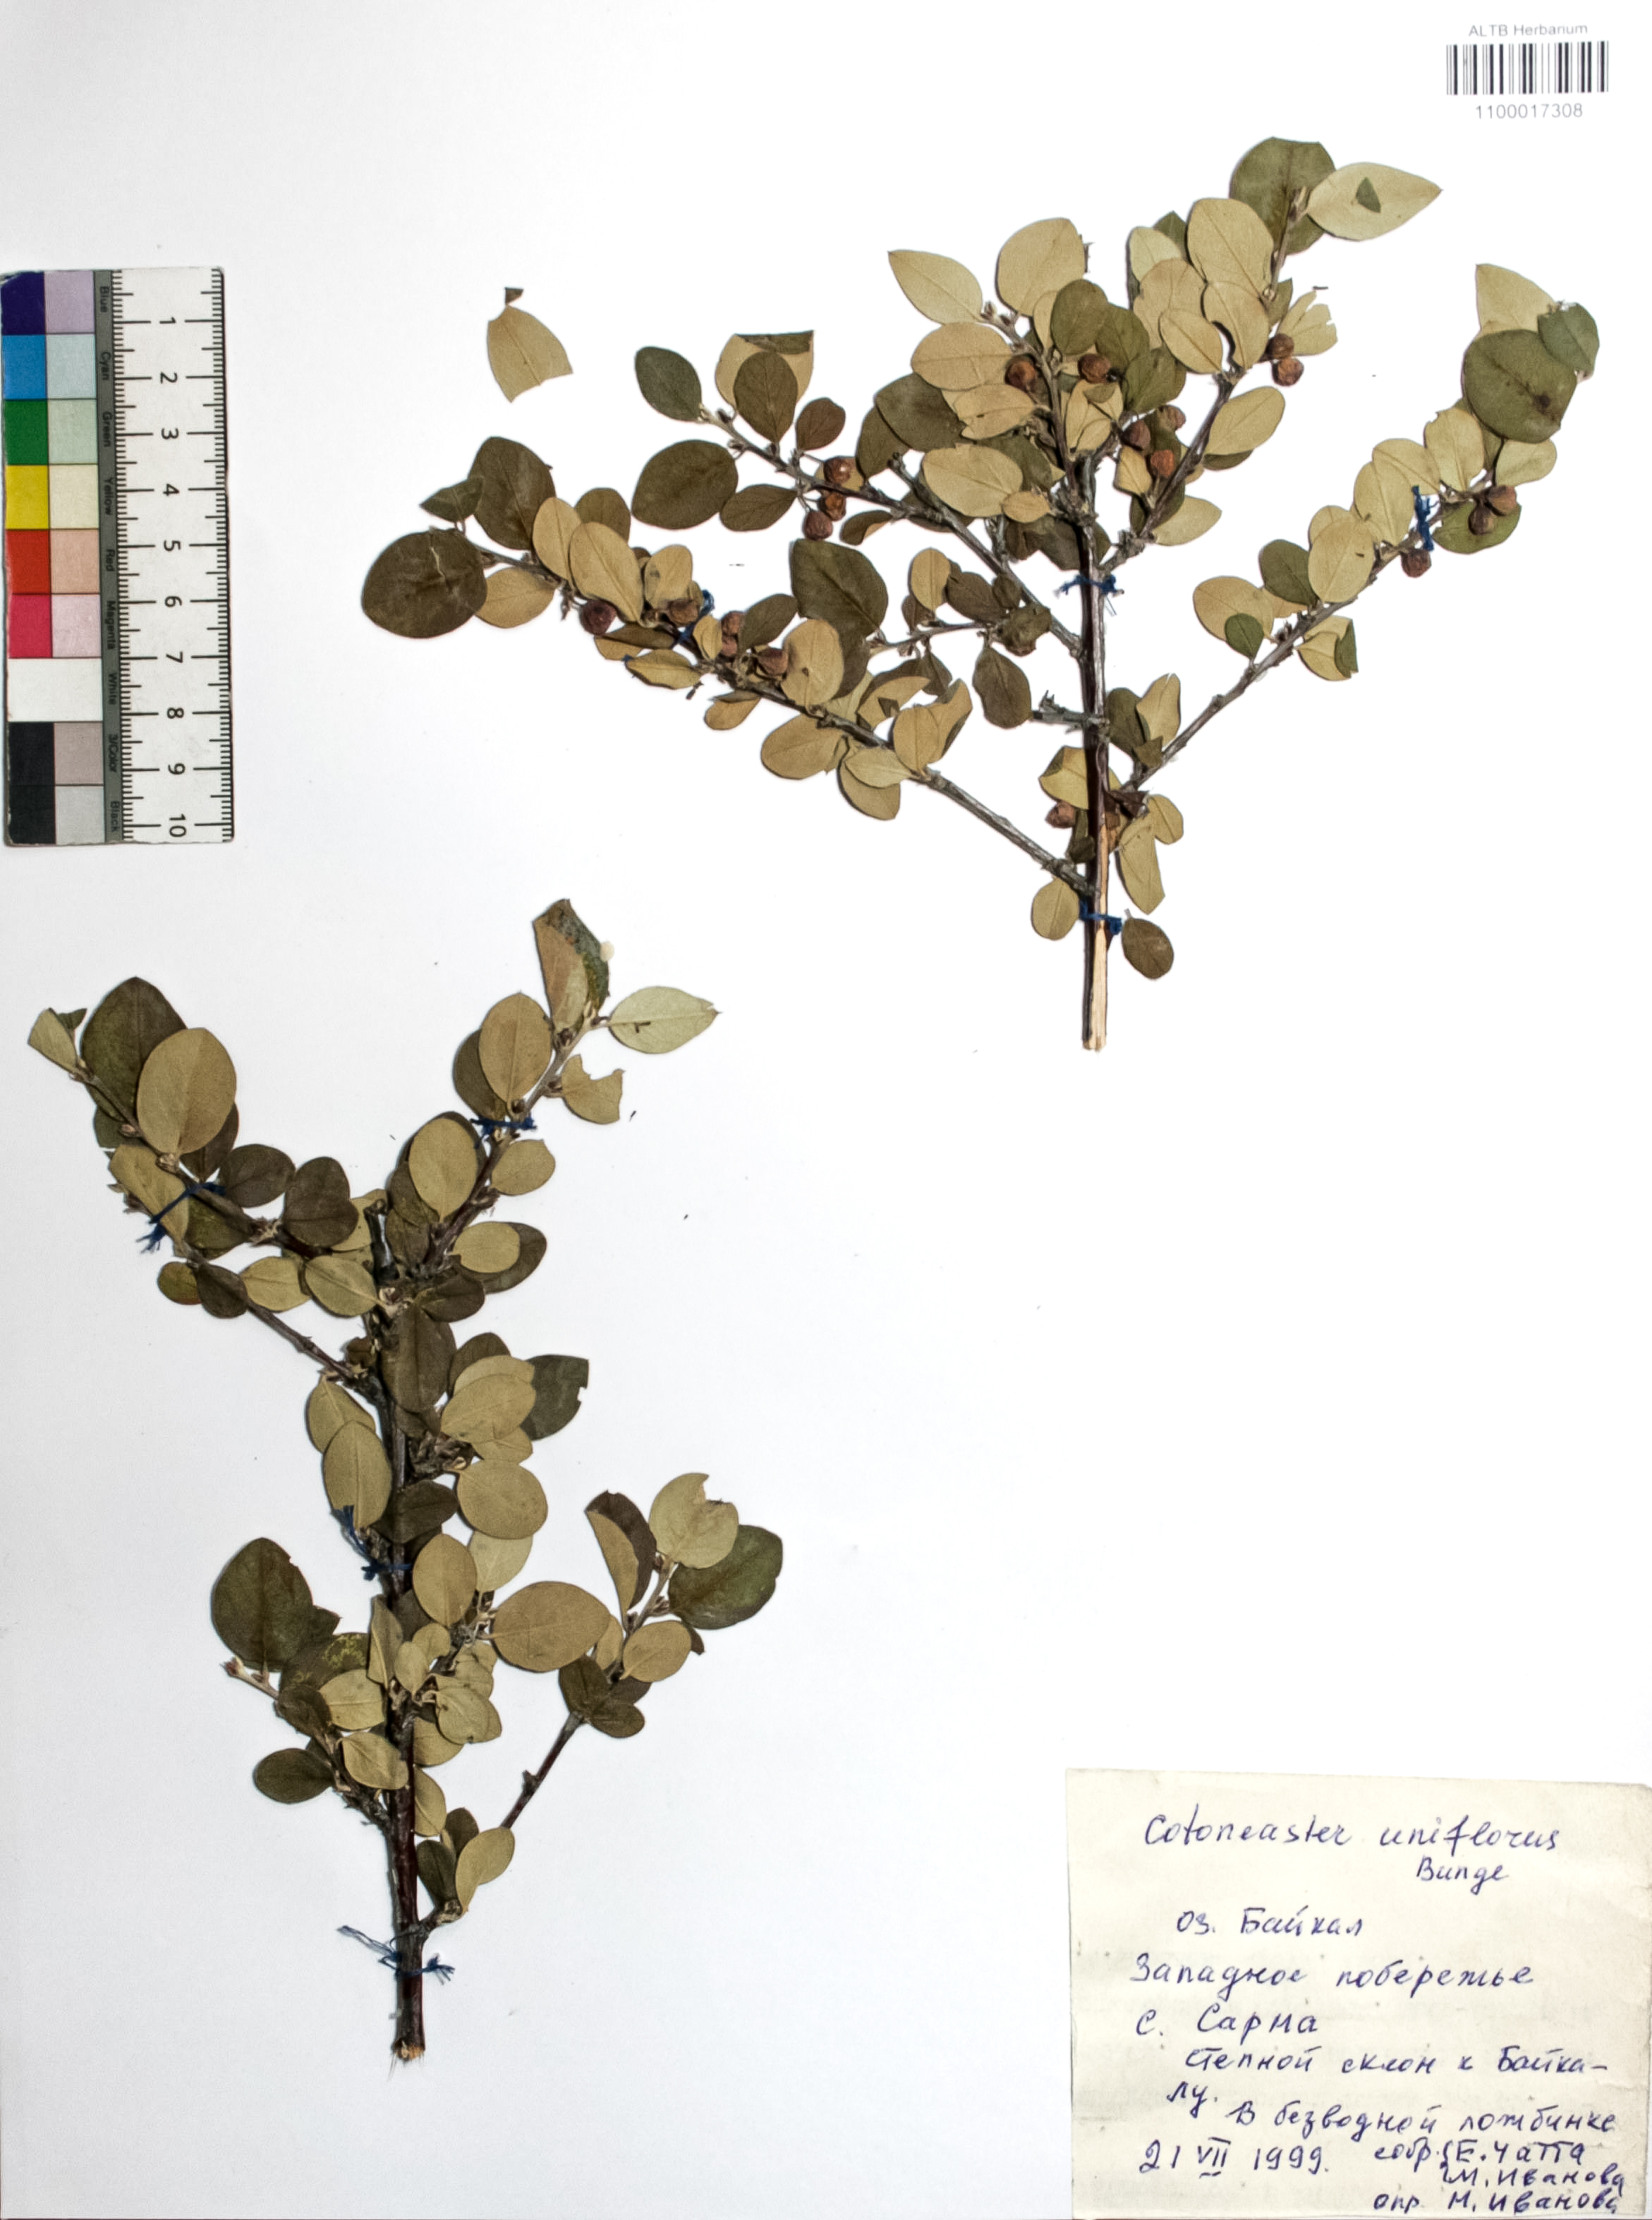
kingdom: Plantae
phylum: Tracheophyta
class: Magnoliopsida
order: Rosales
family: Rosaceae
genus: Cotoneaster
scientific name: Cotoneaster uniflorus
